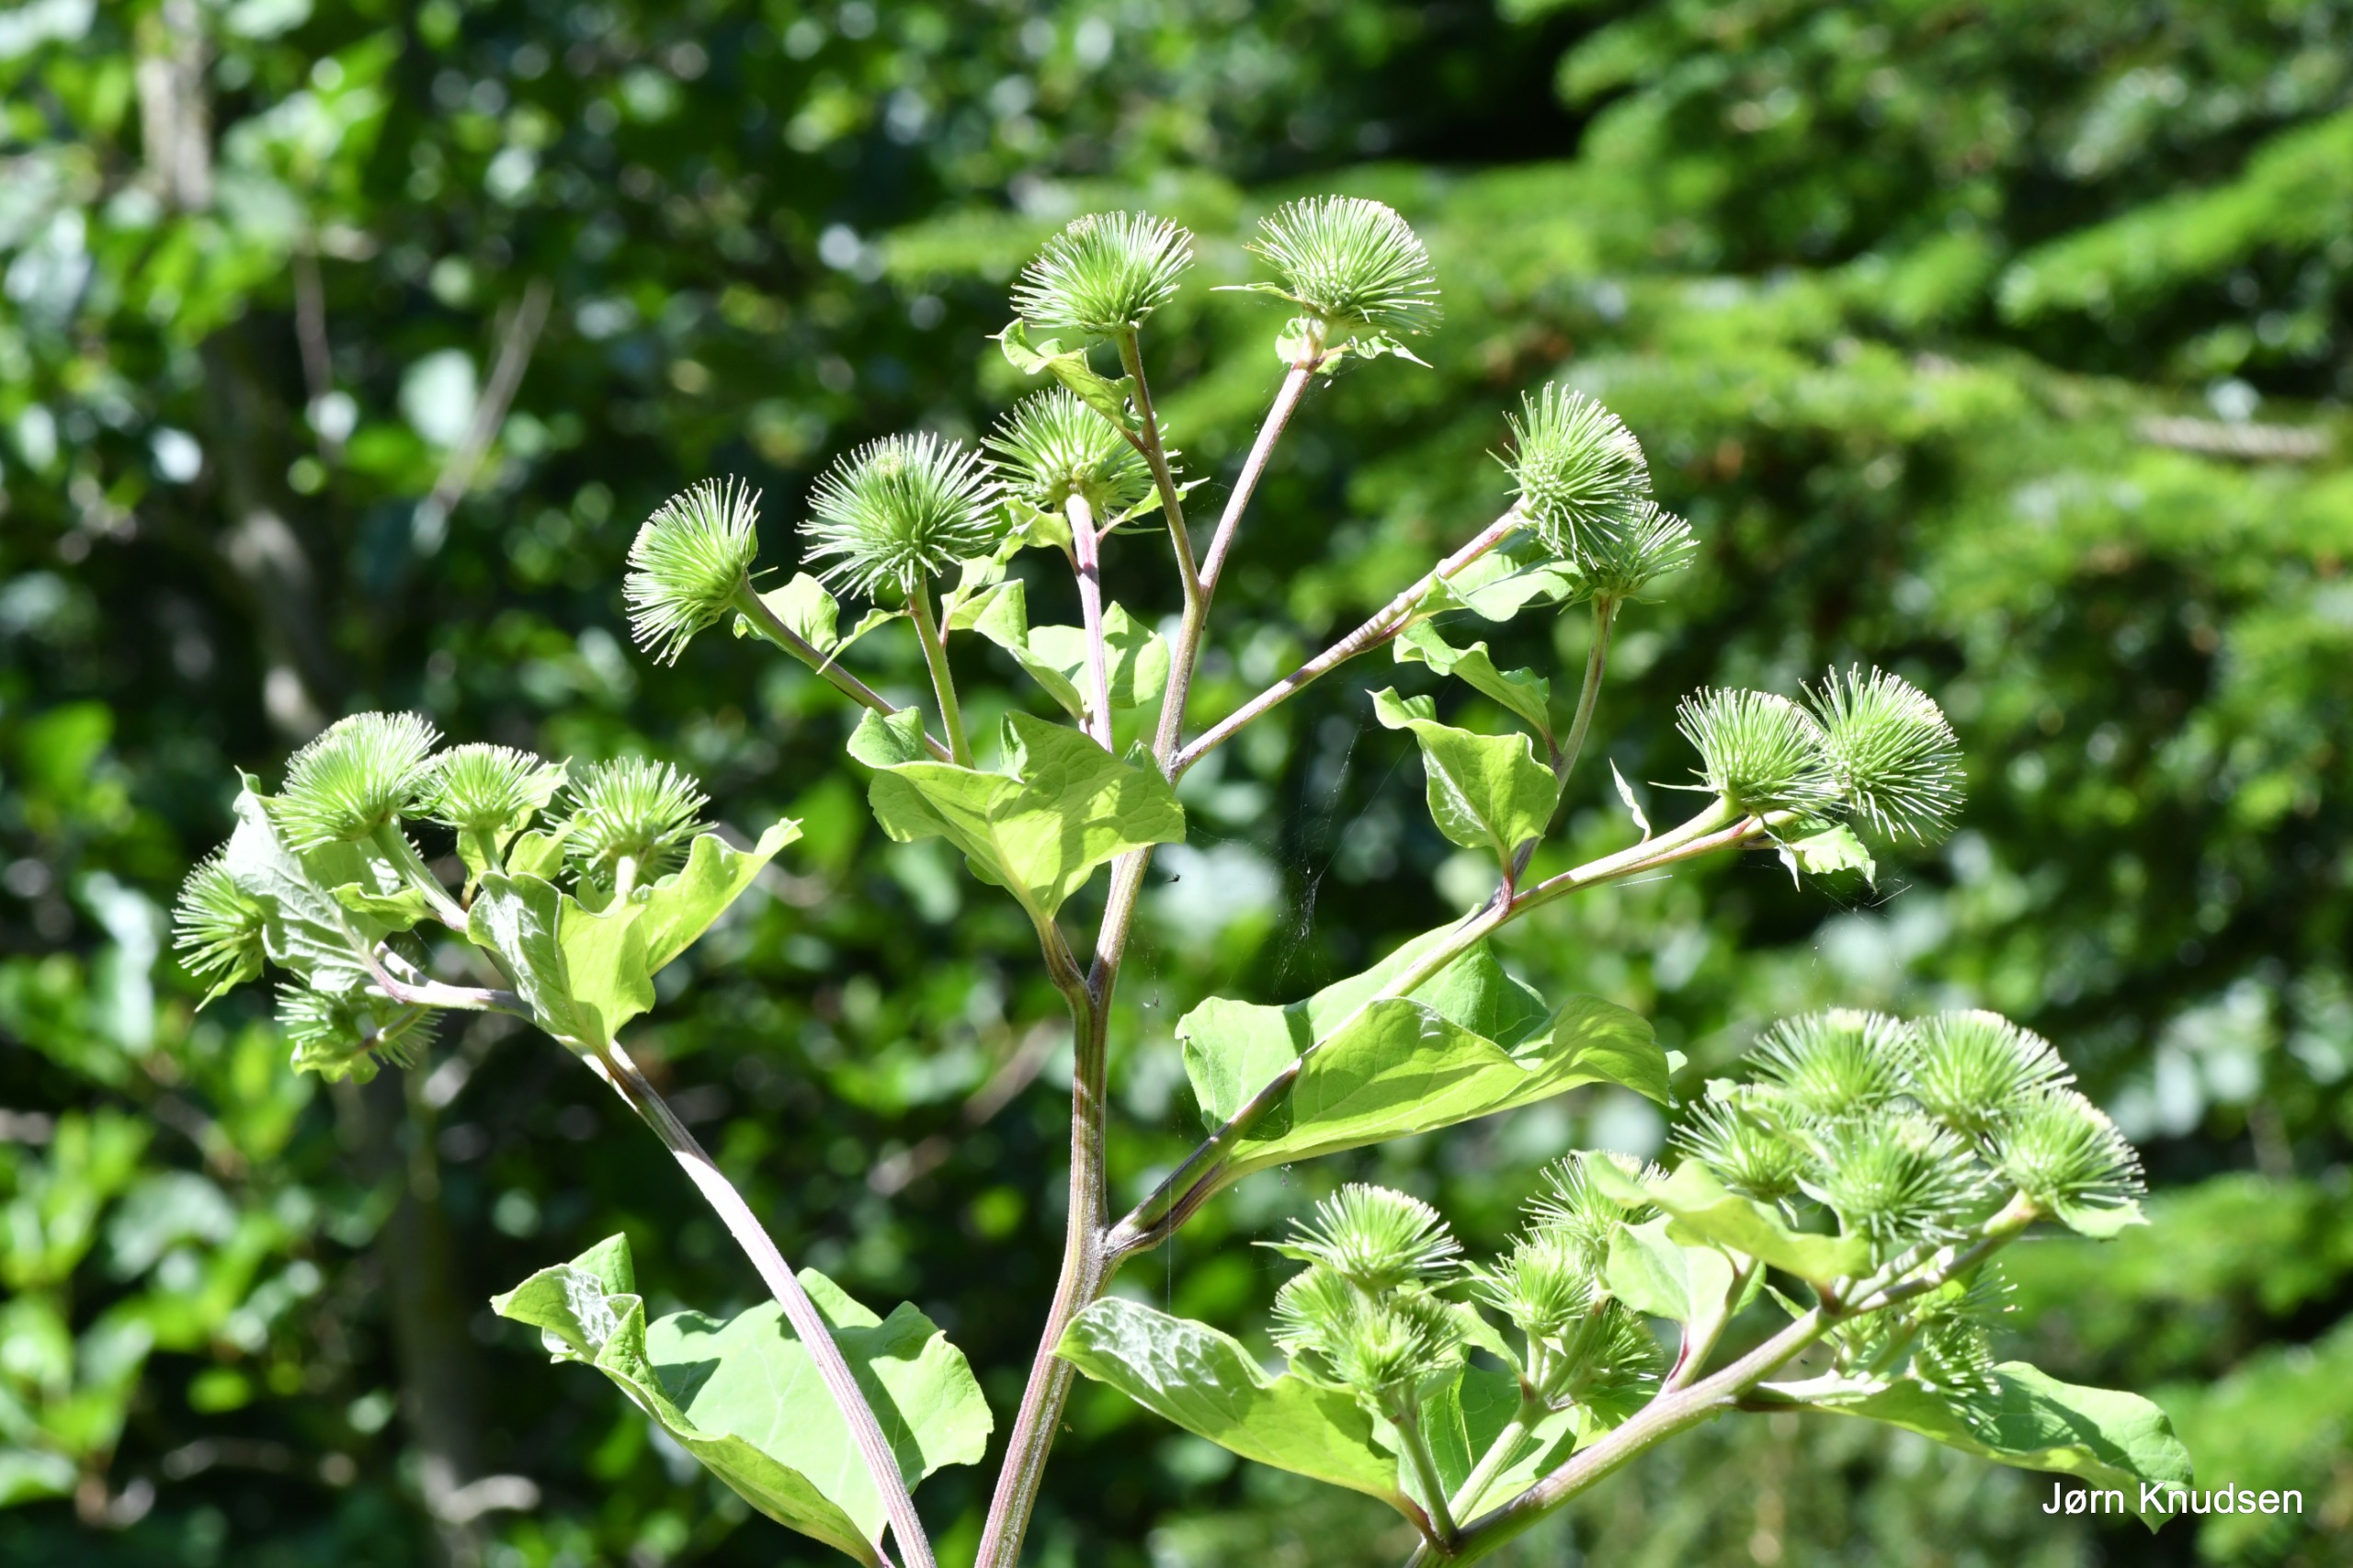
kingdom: Plantae
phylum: Tracheophyta
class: Magnoliopsida
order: Asterales
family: Asteraceae
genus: Arctium
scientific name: Arctium tomentosum
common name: Filtet burre
